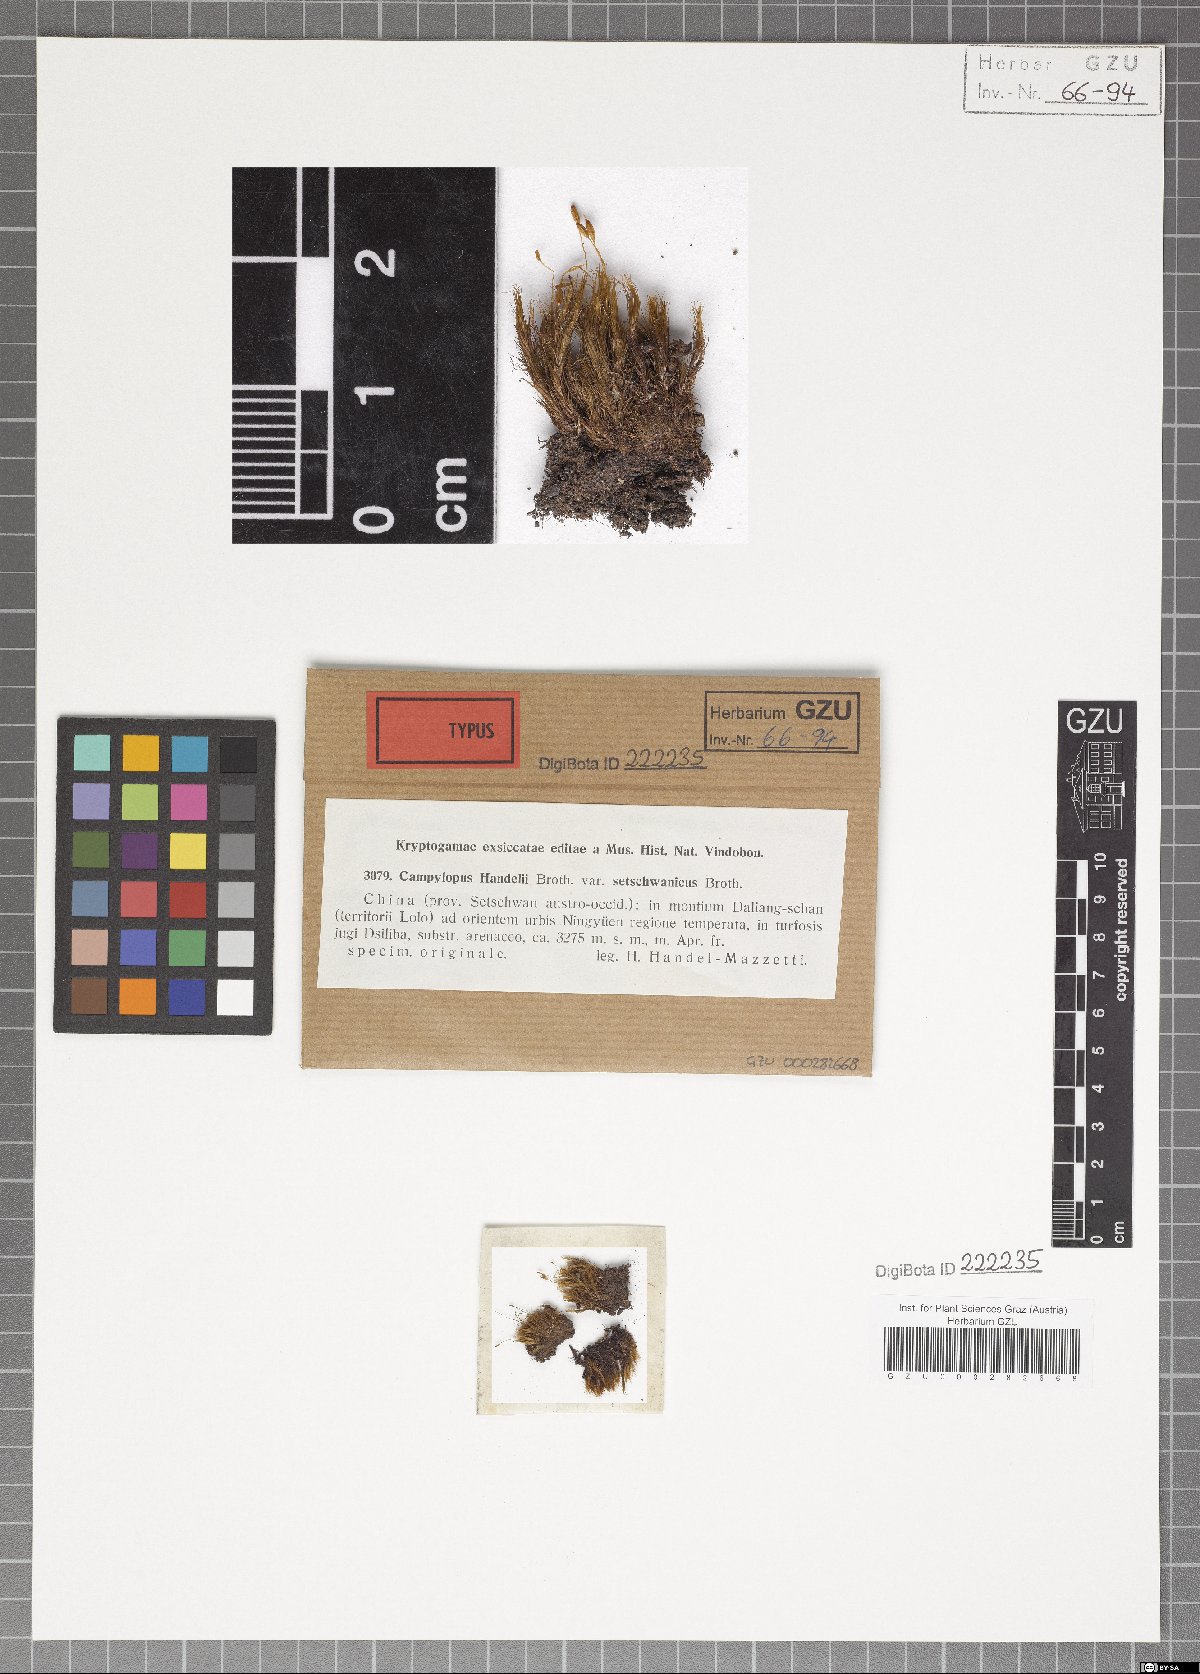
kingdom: Plantae
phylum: Bryophyta
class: Bryopsida
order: Dicranales
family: Leucobryaceae
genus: Campylopus
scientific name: Campylopus schimperi
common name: Schimper's swan-neck moss
